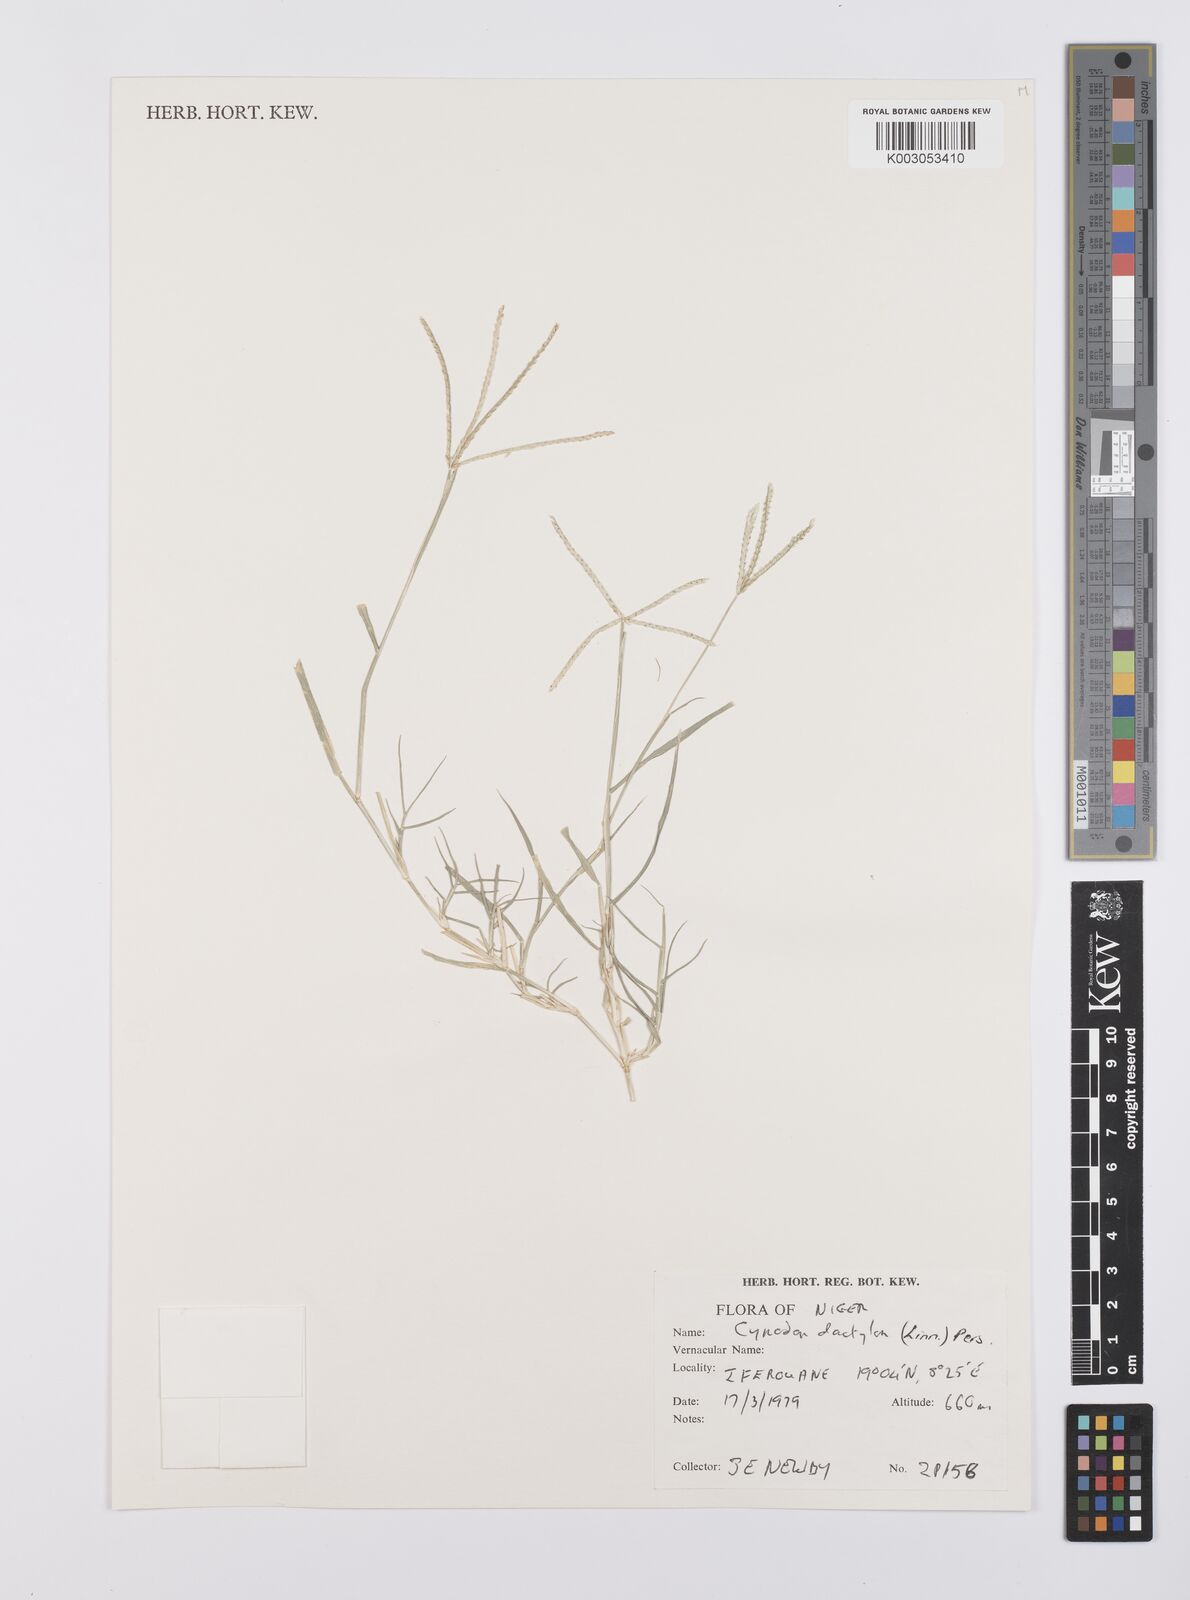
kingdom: Plantae
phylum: Tracheophyta
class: Liliopsida
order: Poales
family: Poaceae
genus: Cynodon
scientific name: Cynodon dactylon
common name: Bermuda grass
